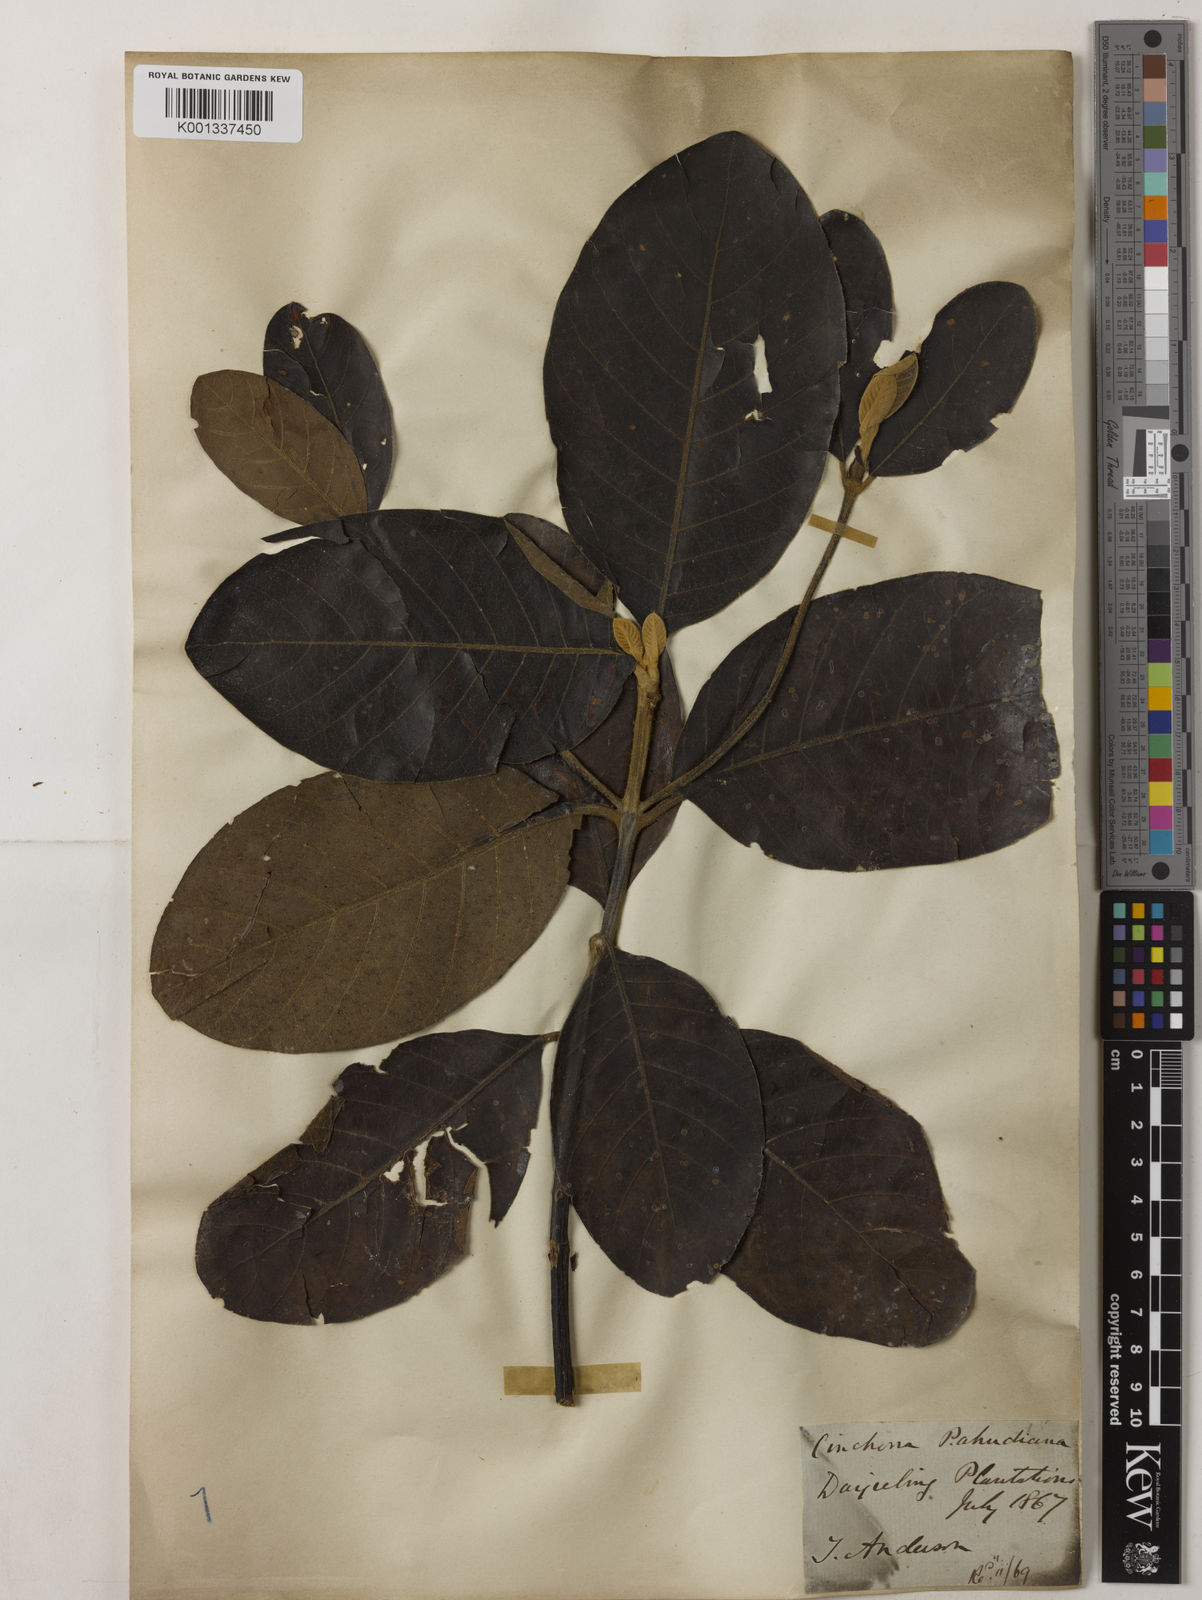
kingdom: Plantae
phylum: Tracheophyta
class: Magnoliopsida
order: Gentianales
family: Rubiaceae
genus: Cinchona
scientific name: Cinchona calisaya
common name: Ledgerbark
